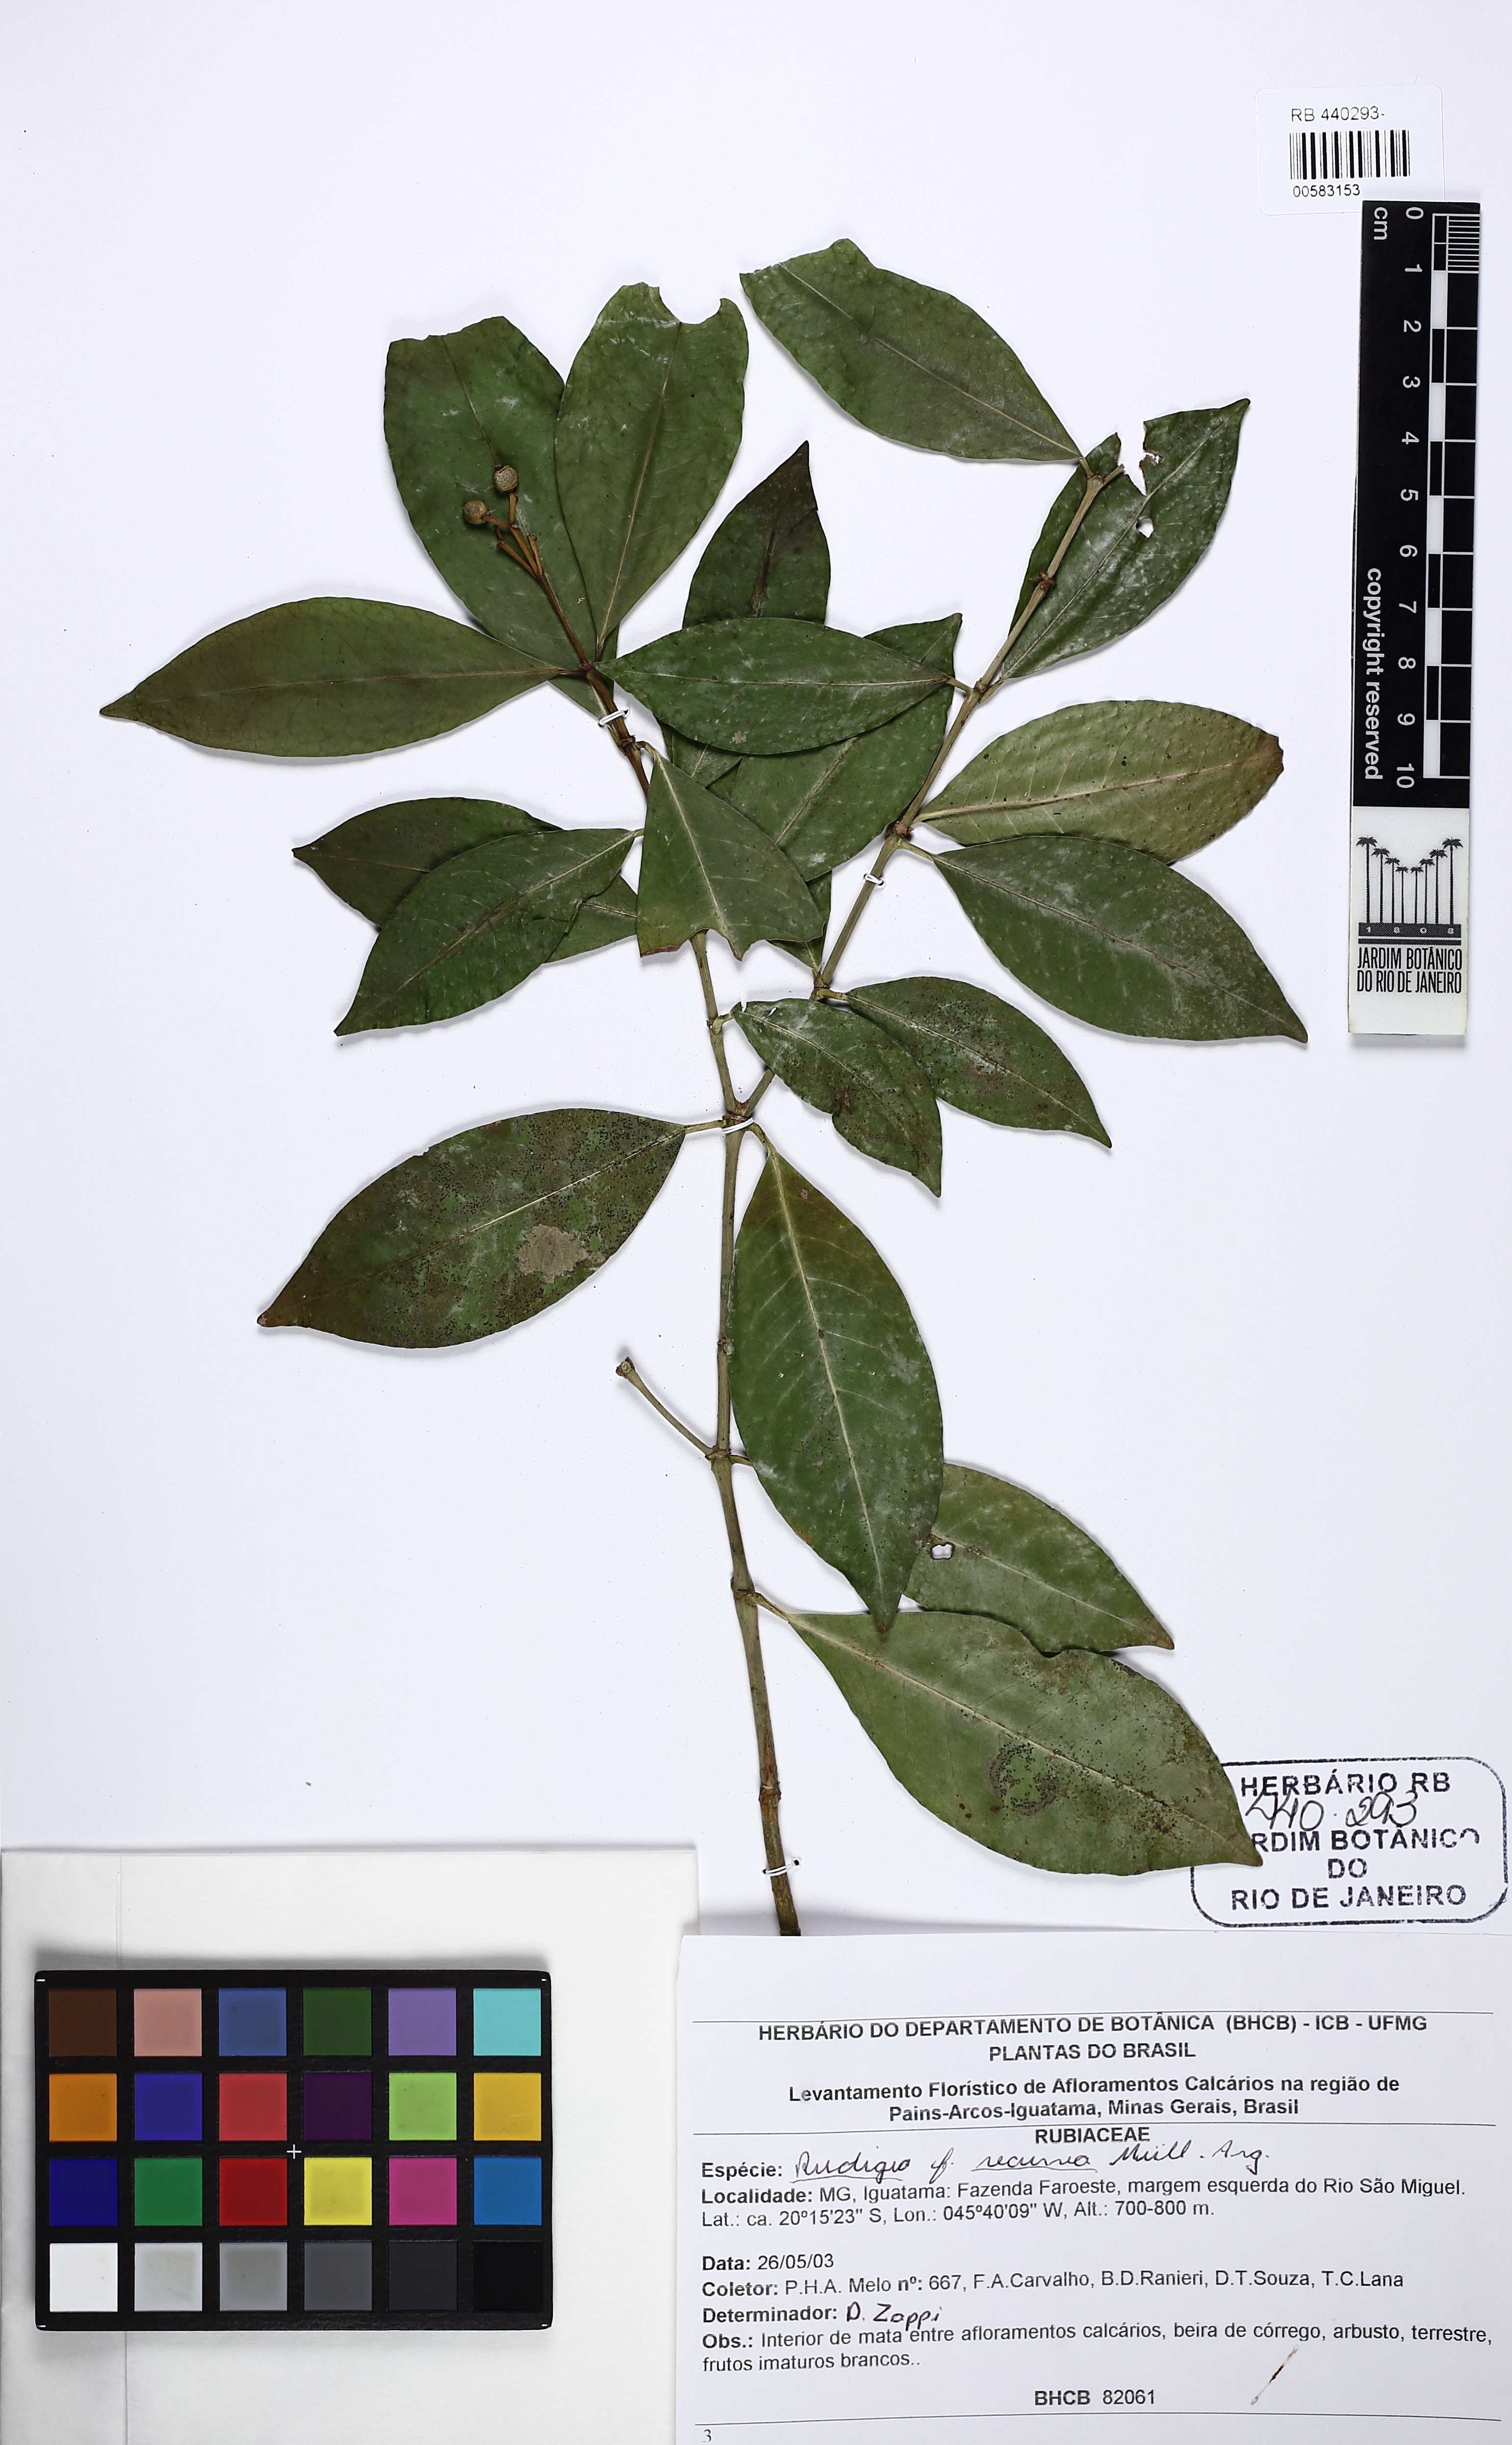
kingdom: Plantae
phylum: Tracheophyta
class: Magnoliopsida
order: Gentianales
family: Rubiaceae
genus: Rudgea
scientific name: Rudgea recurva
